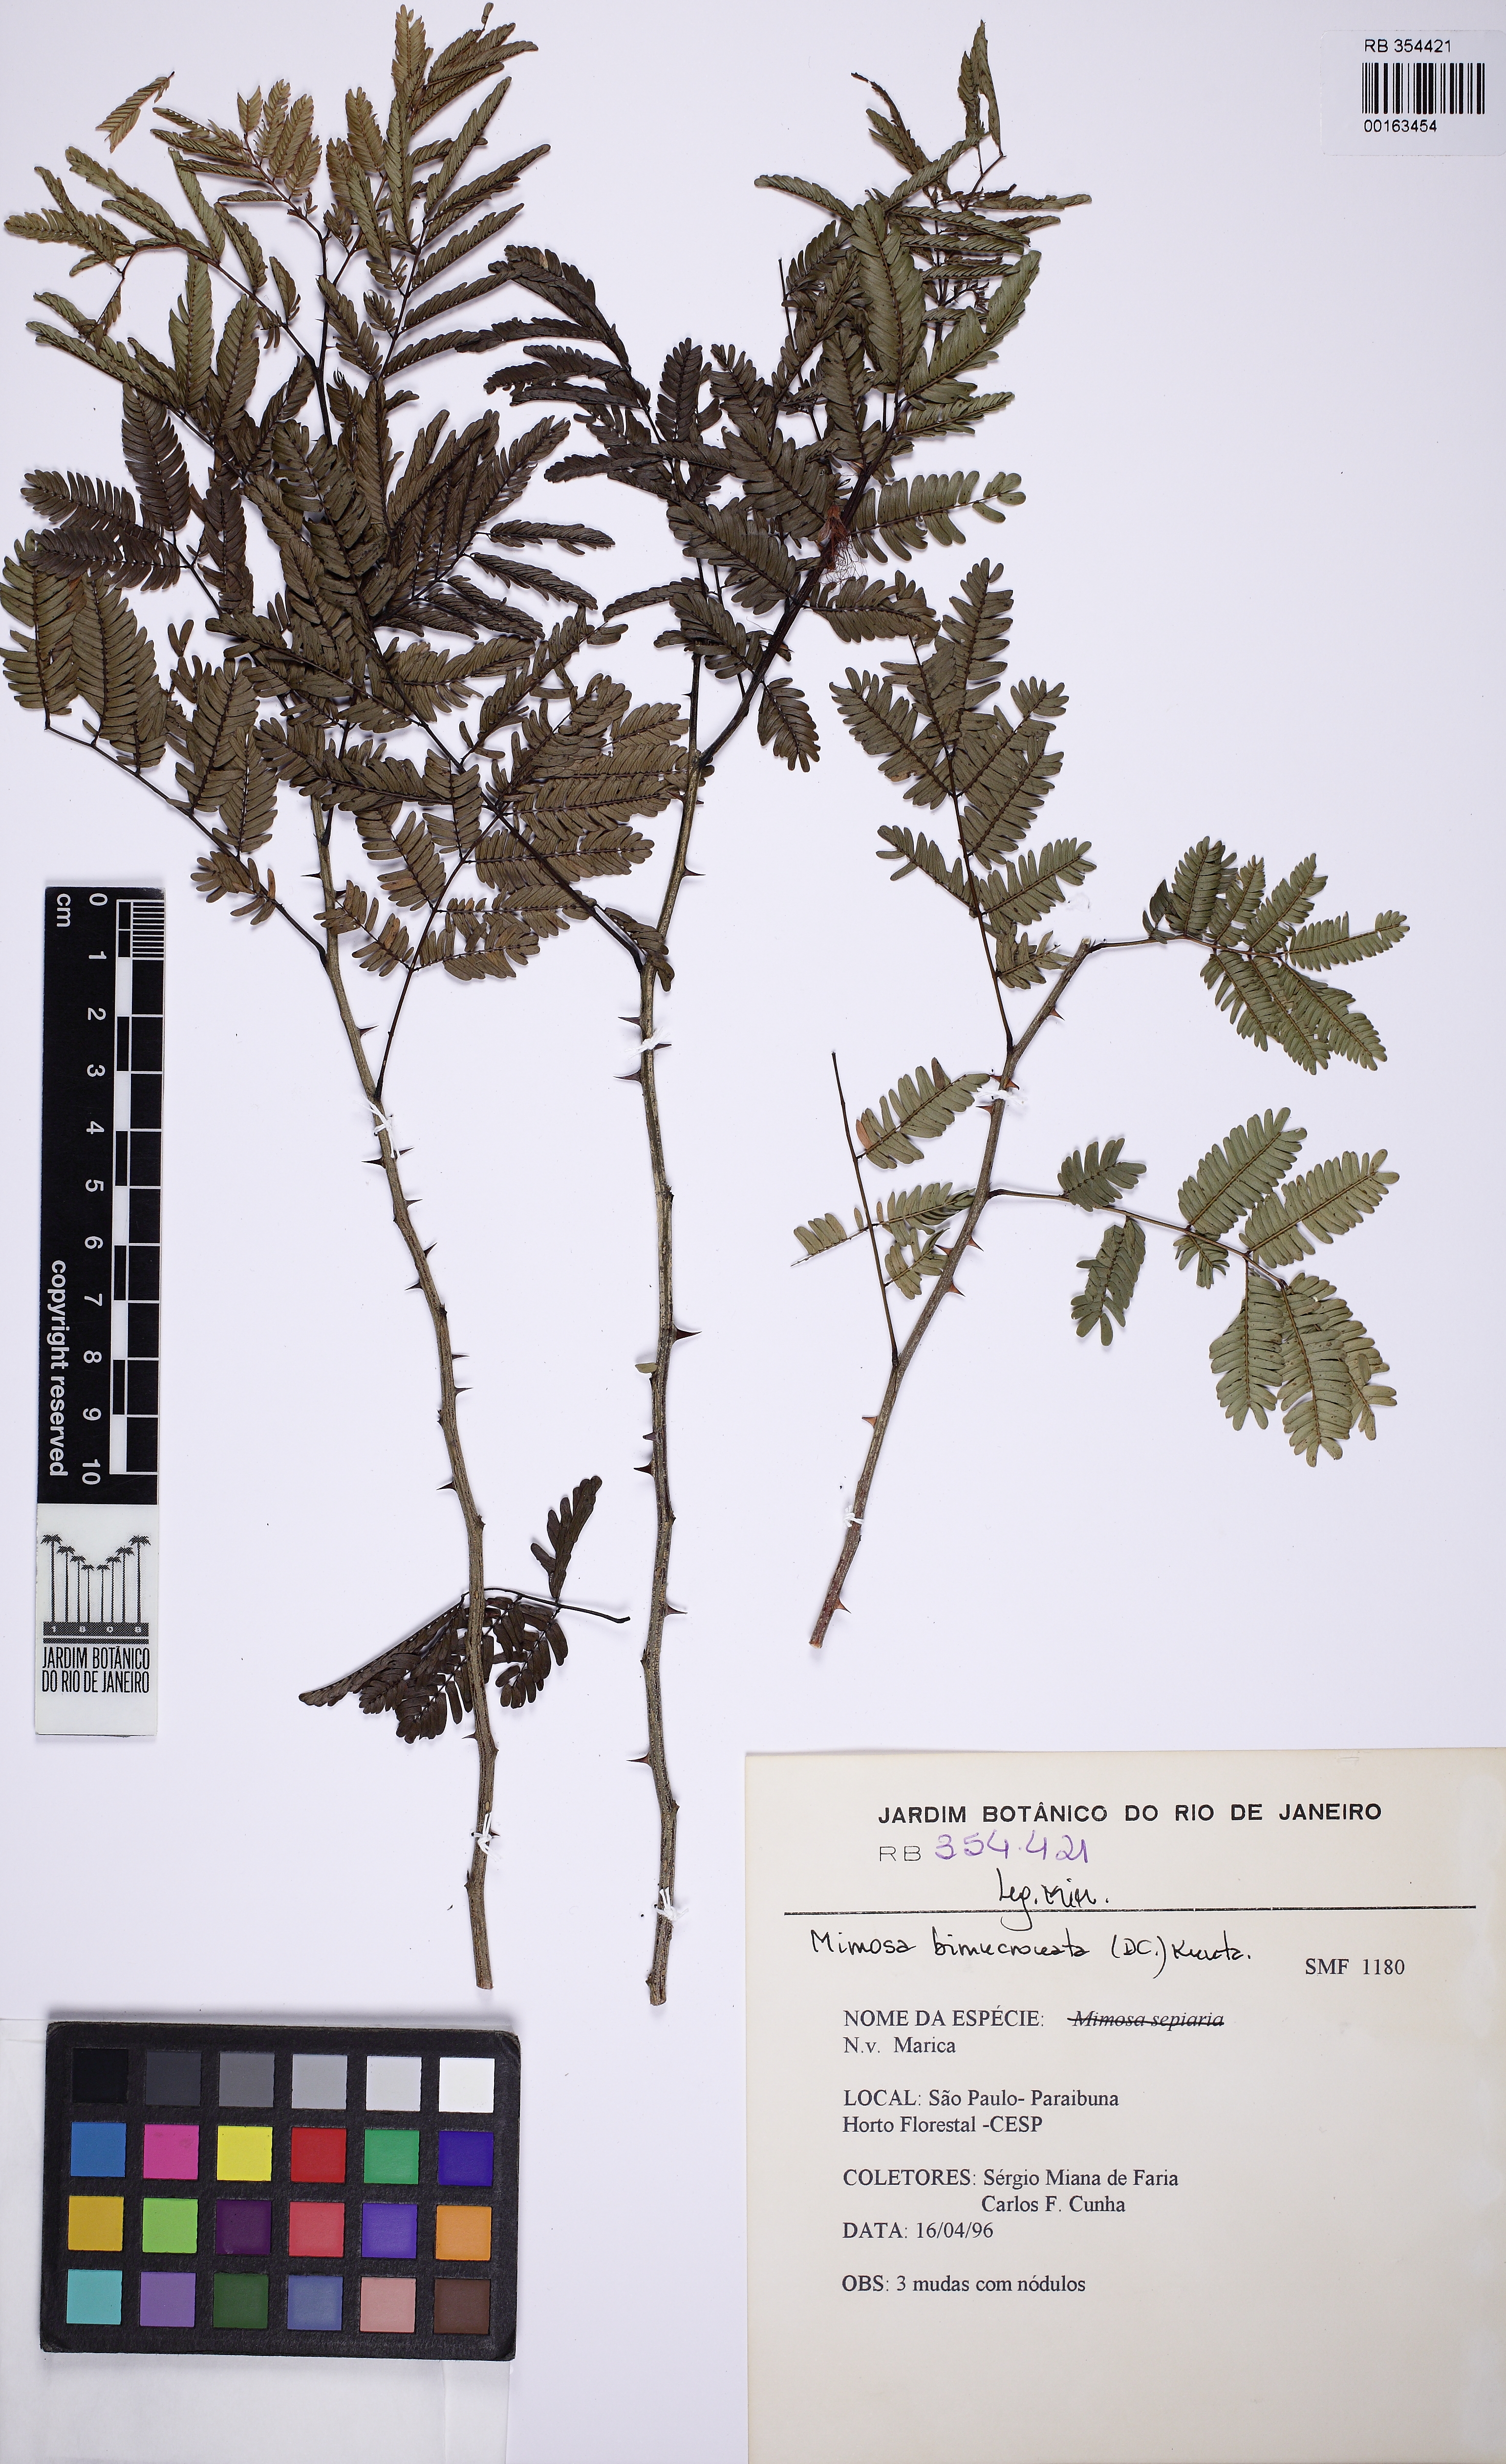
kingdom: Plantae
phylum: Tracheophyta
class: Magnoliopsida
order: Fabales
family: Fabaceae
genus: Mimosa
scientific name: Mimosa bimucronata
